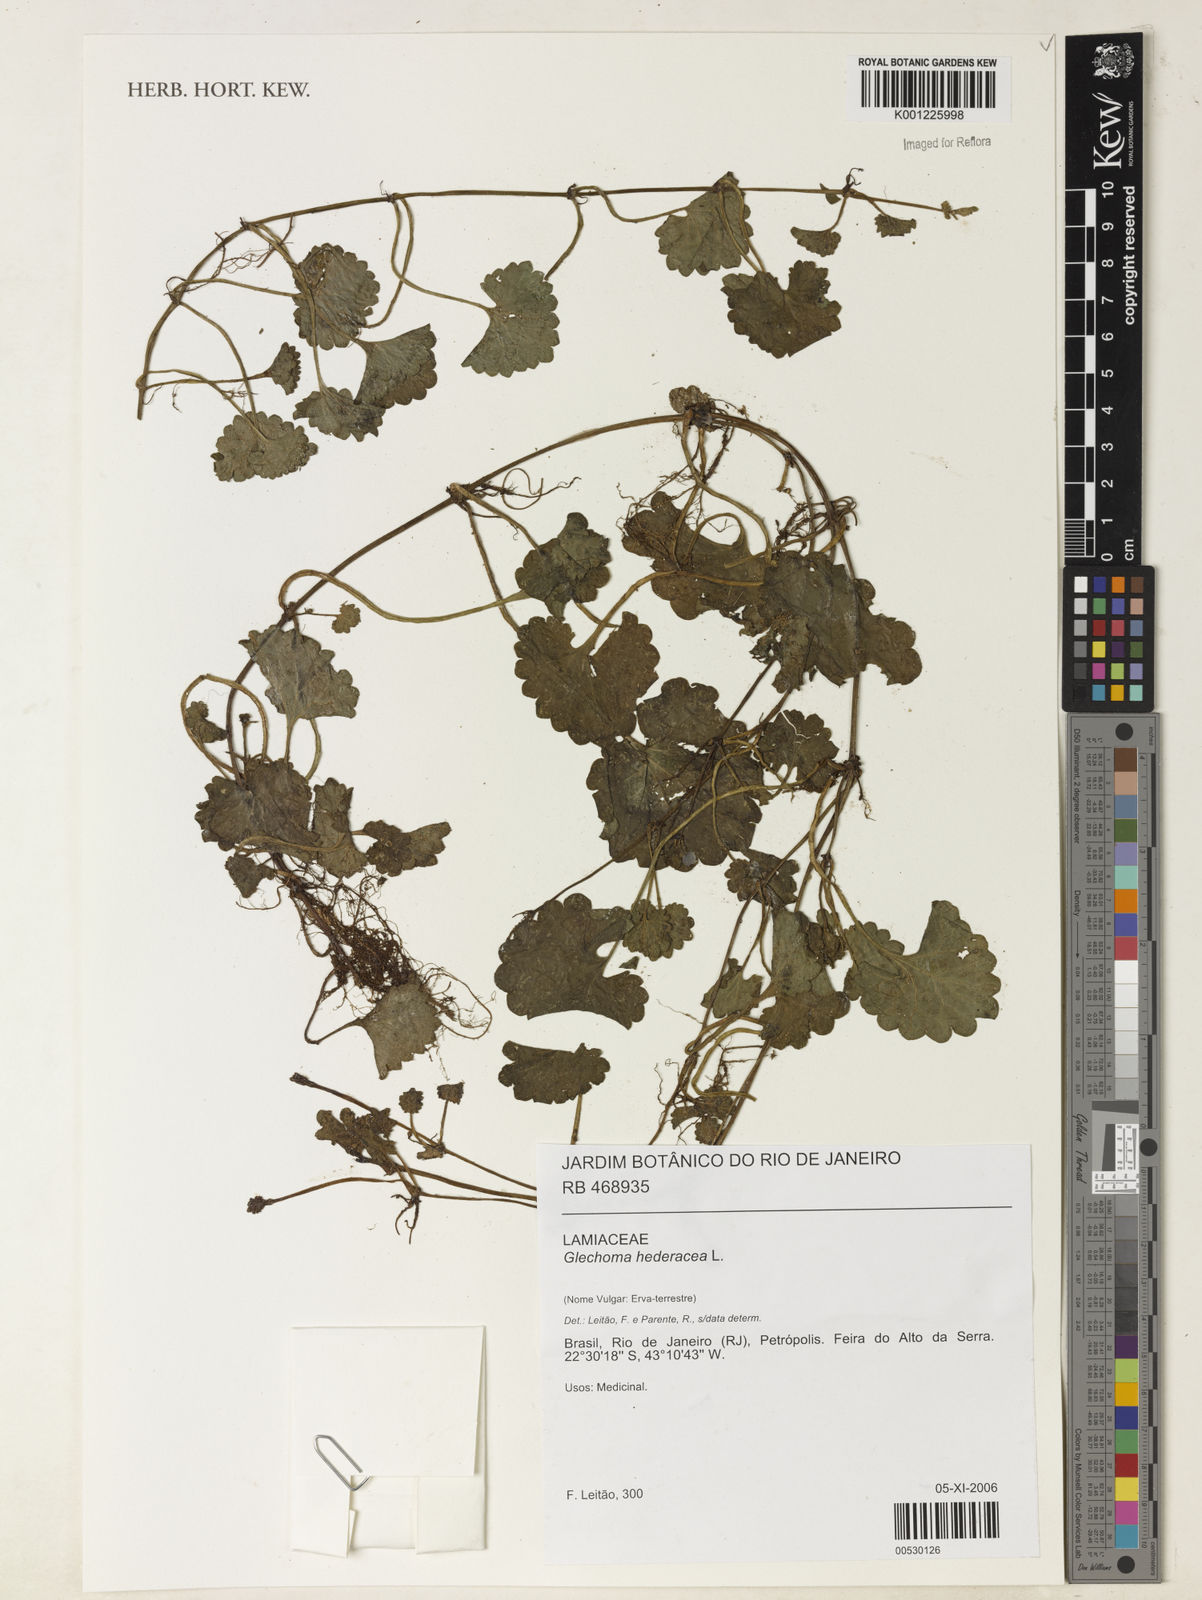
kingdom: Plantae
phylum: Tracheophyta
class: Magnoliopsida
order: Lamiales
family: Lamiaceae
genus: Glechoma
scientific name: Glechoma hederacea
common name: Ground ivy
